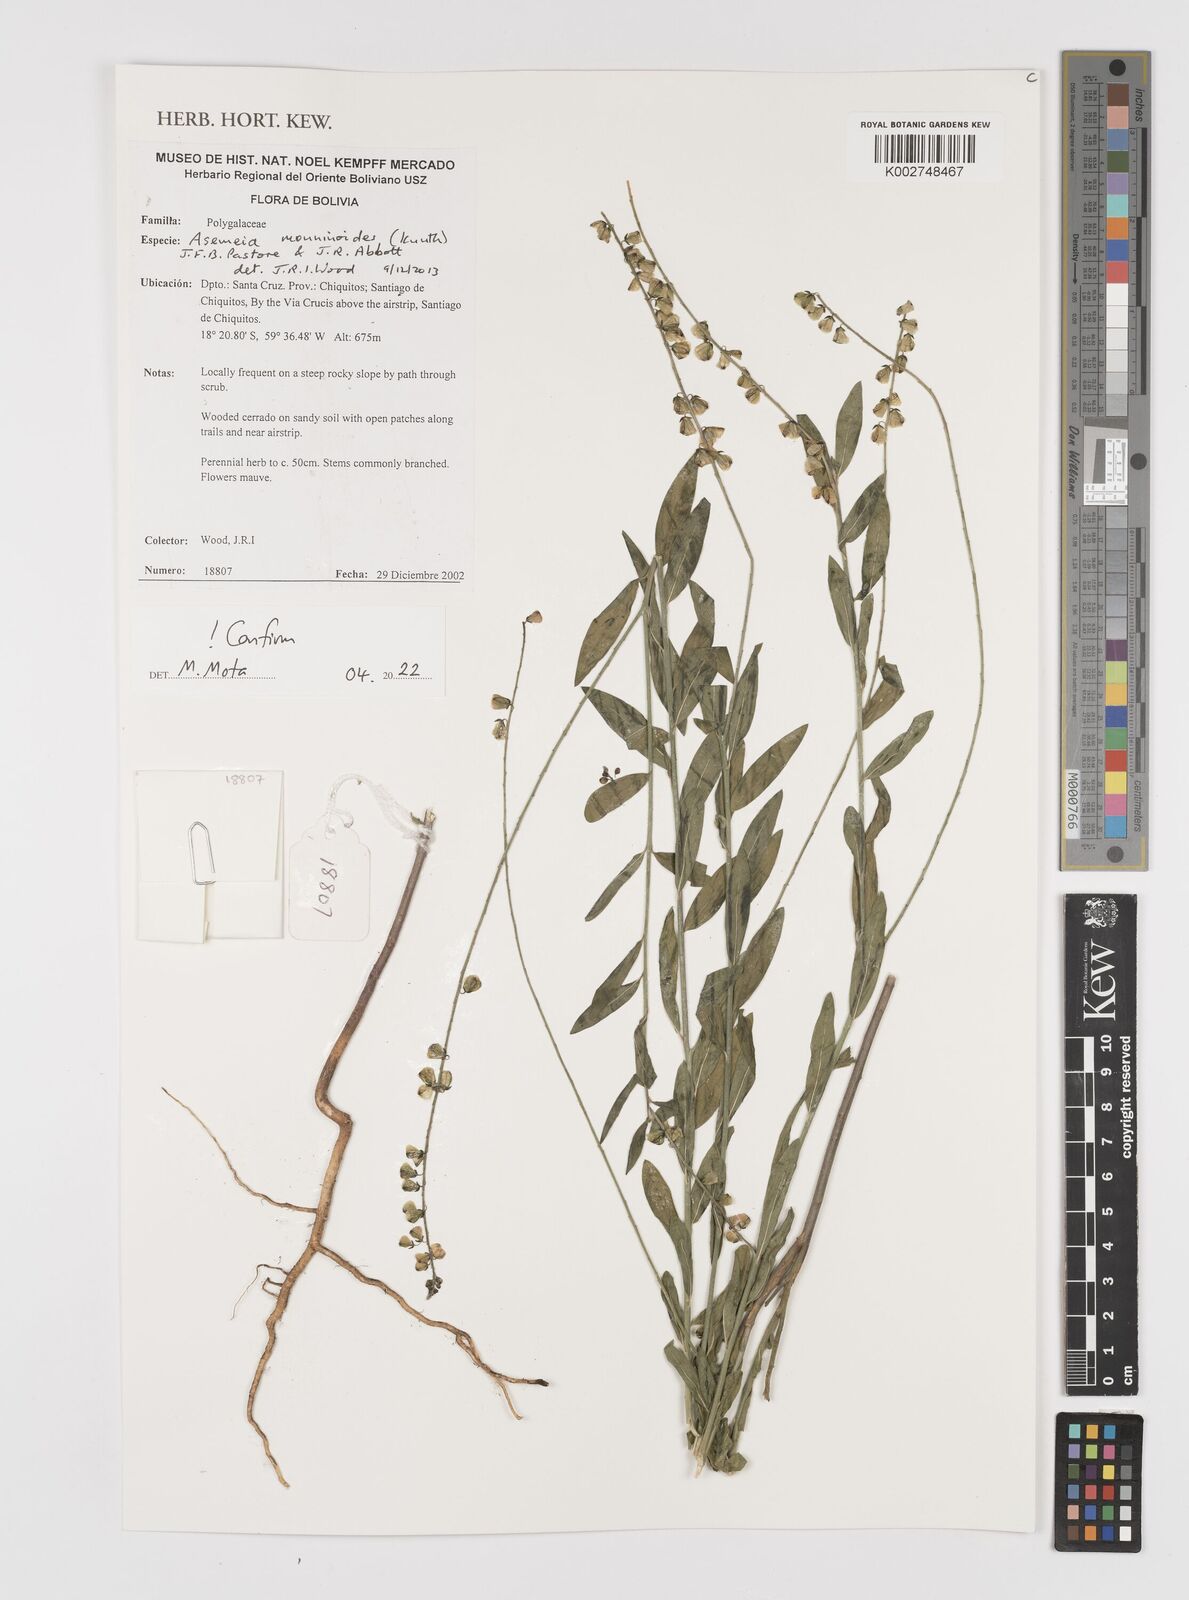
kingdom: Plantae
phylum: Tracheophyta
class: Magnoliopsida
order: Fabales
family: Polygalaceae
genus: Asemeia
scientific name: Asemeia monninoides
